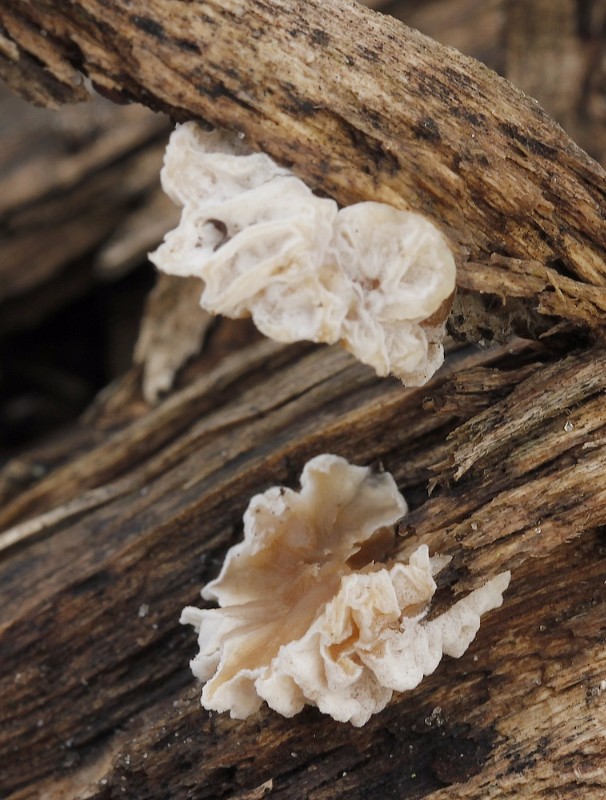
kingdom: Fungi
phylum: Ascomycota
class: Sordariomycetes
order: Hypocreales
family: Hypocreaceae
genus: Hypomyces
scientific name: Hypomyces tubariicola
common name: fnughat-snylteskorpe
